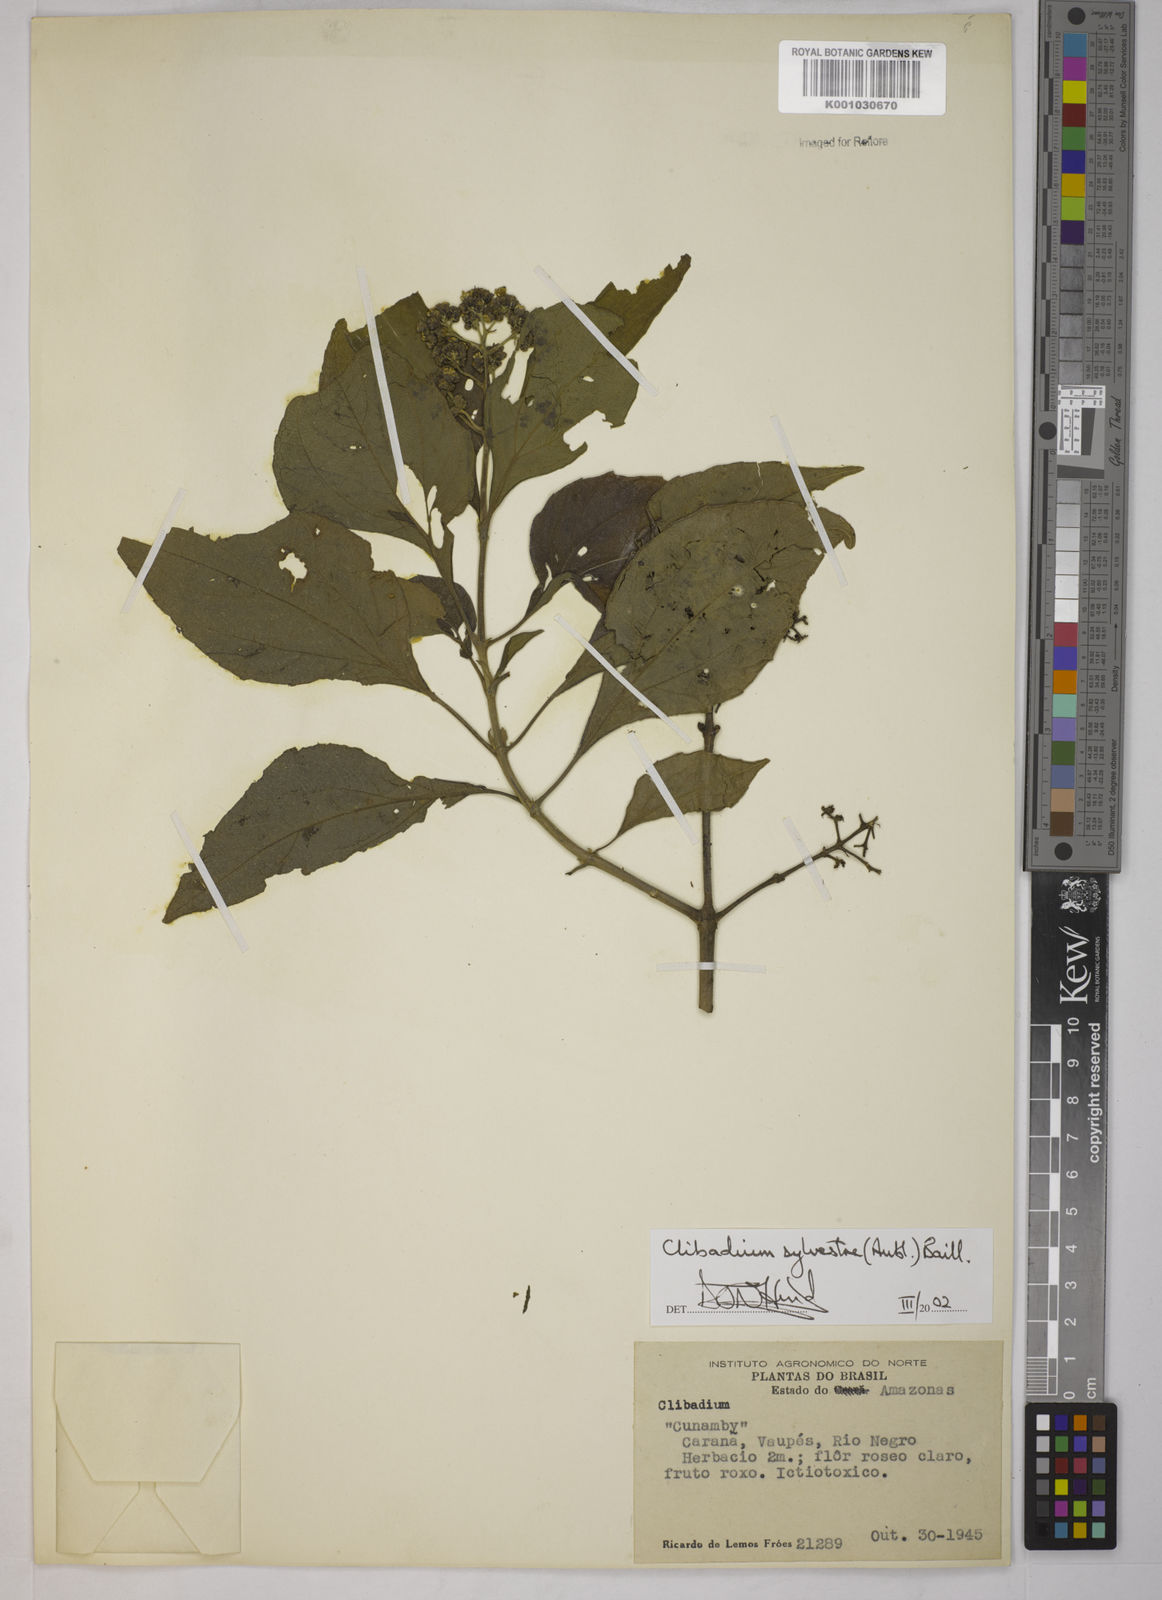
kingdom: Plantae
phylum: Tracheophyta
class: Magnoliopsida
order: Asterales
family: Asteraceae
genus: Clibadium
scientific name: Clibadium sylvestre
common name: Barbasco
